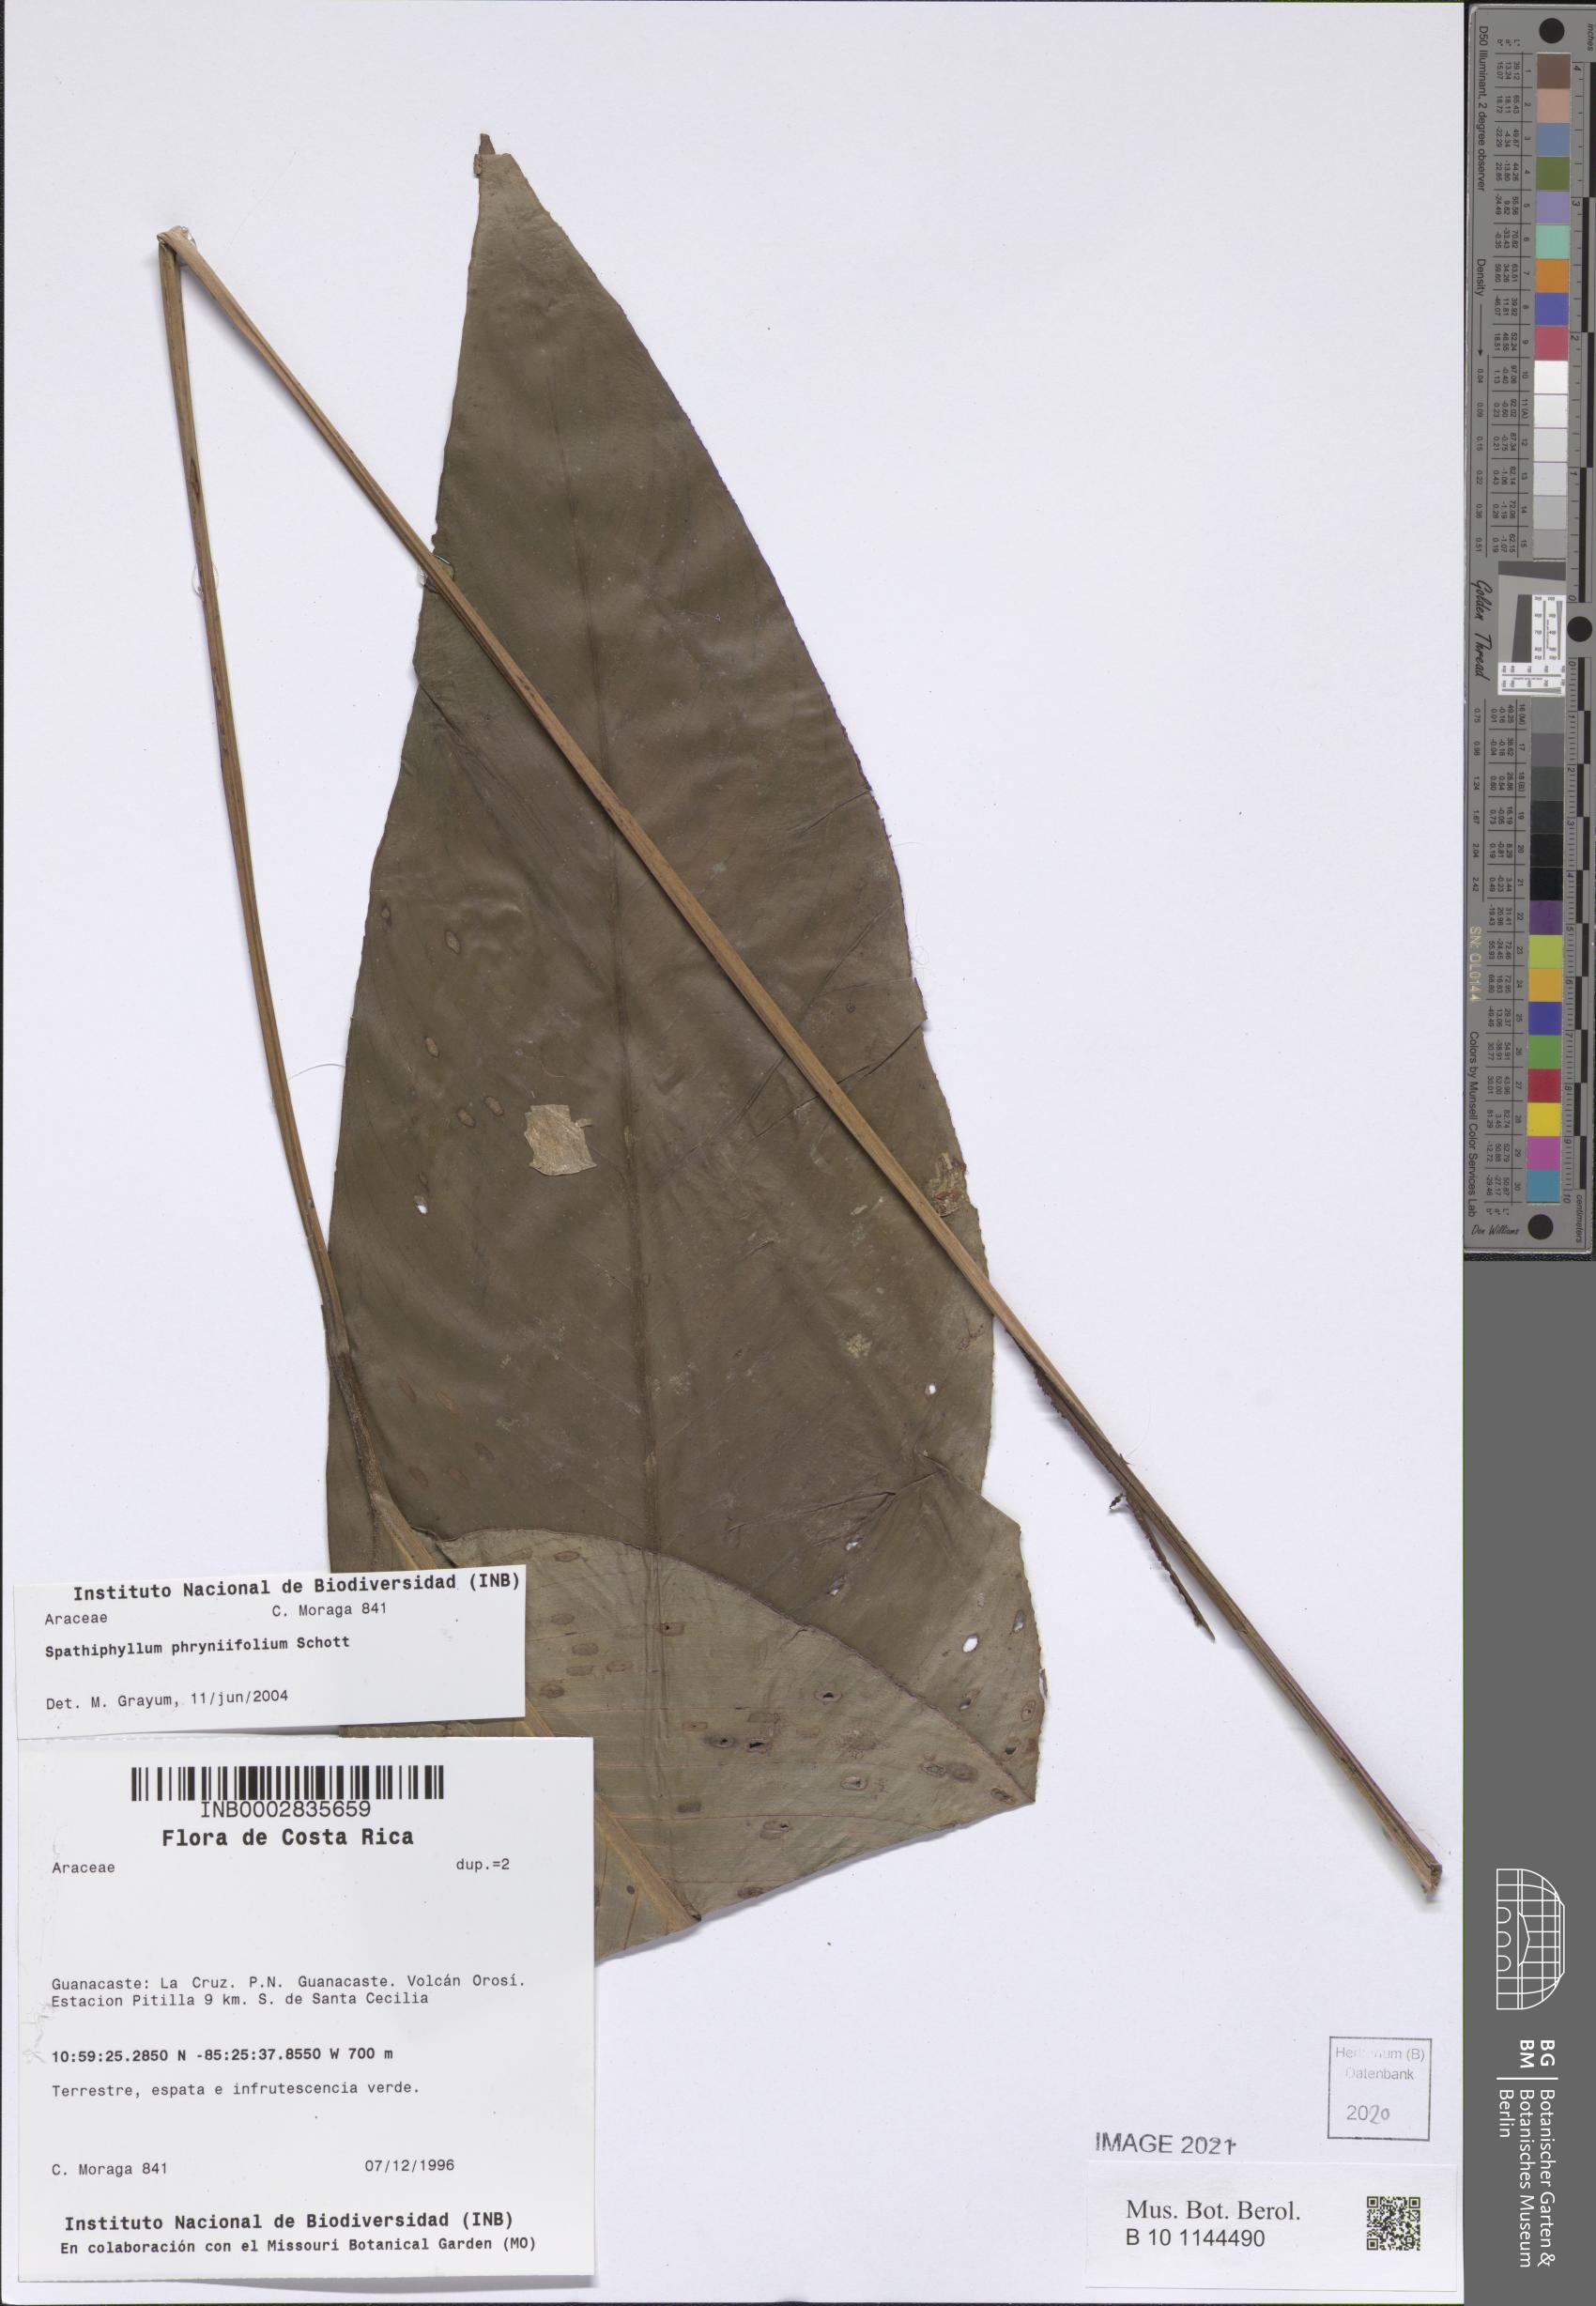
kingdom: Plantae
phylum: Tracheophyta
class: Liliopsida
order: Alismatales
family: Araceae
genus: Spathiphyllum
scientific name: Spathiphyllum phryniifolium
